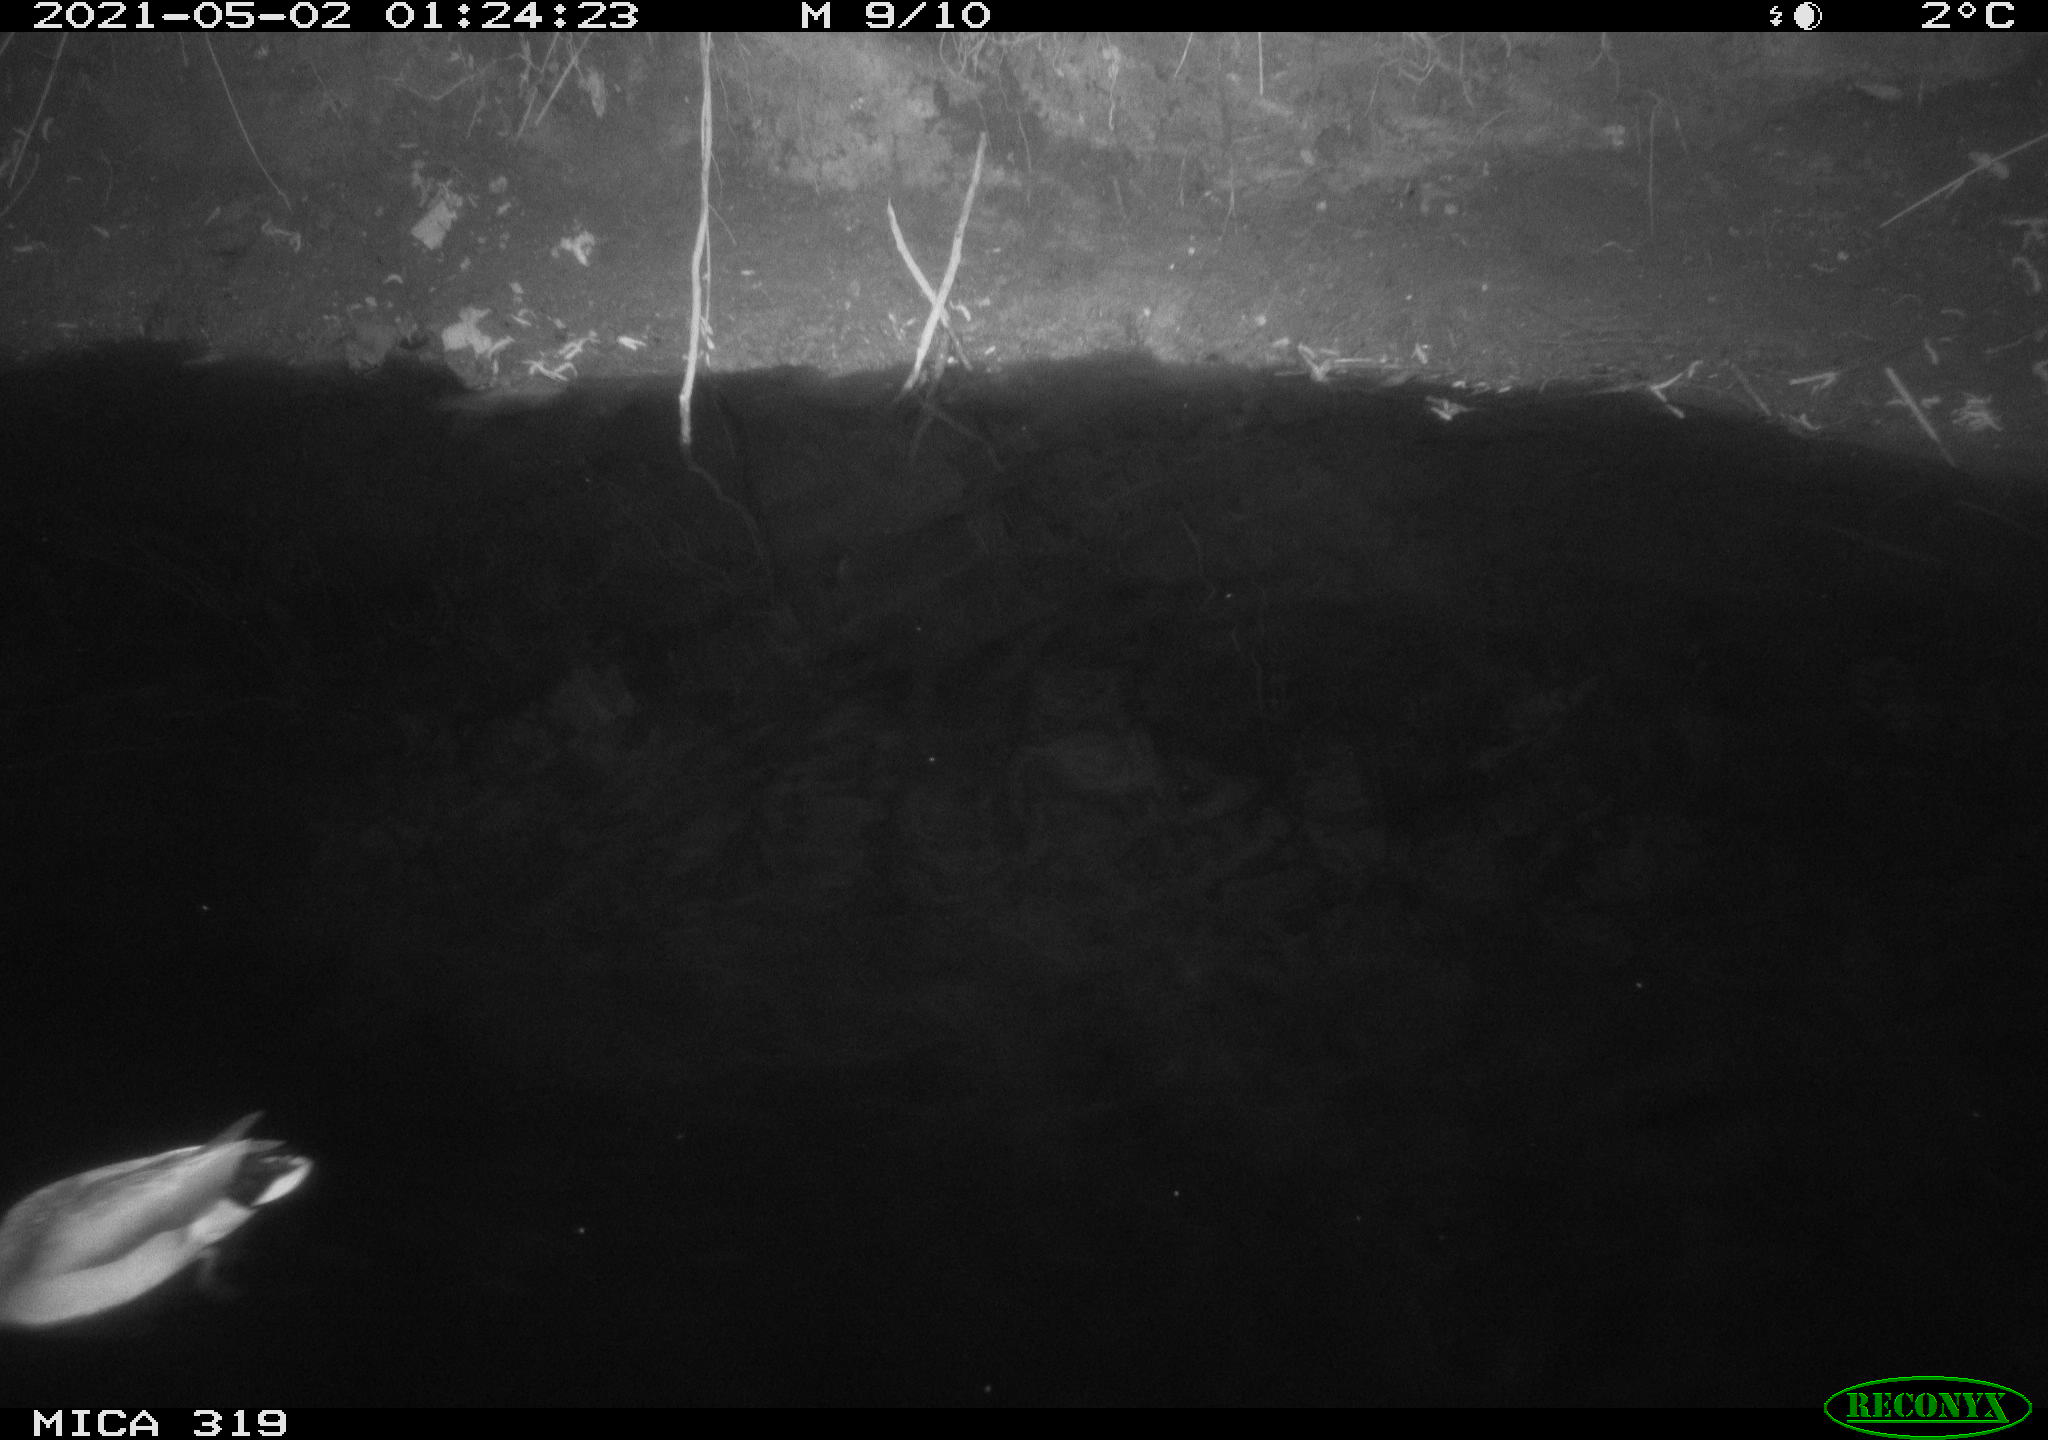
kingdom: Animalia
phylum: Chordata
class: Aves
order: Anseriformes
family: Anatidae
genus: Anas
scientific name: Anas platyrhynchos
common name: Mallard
